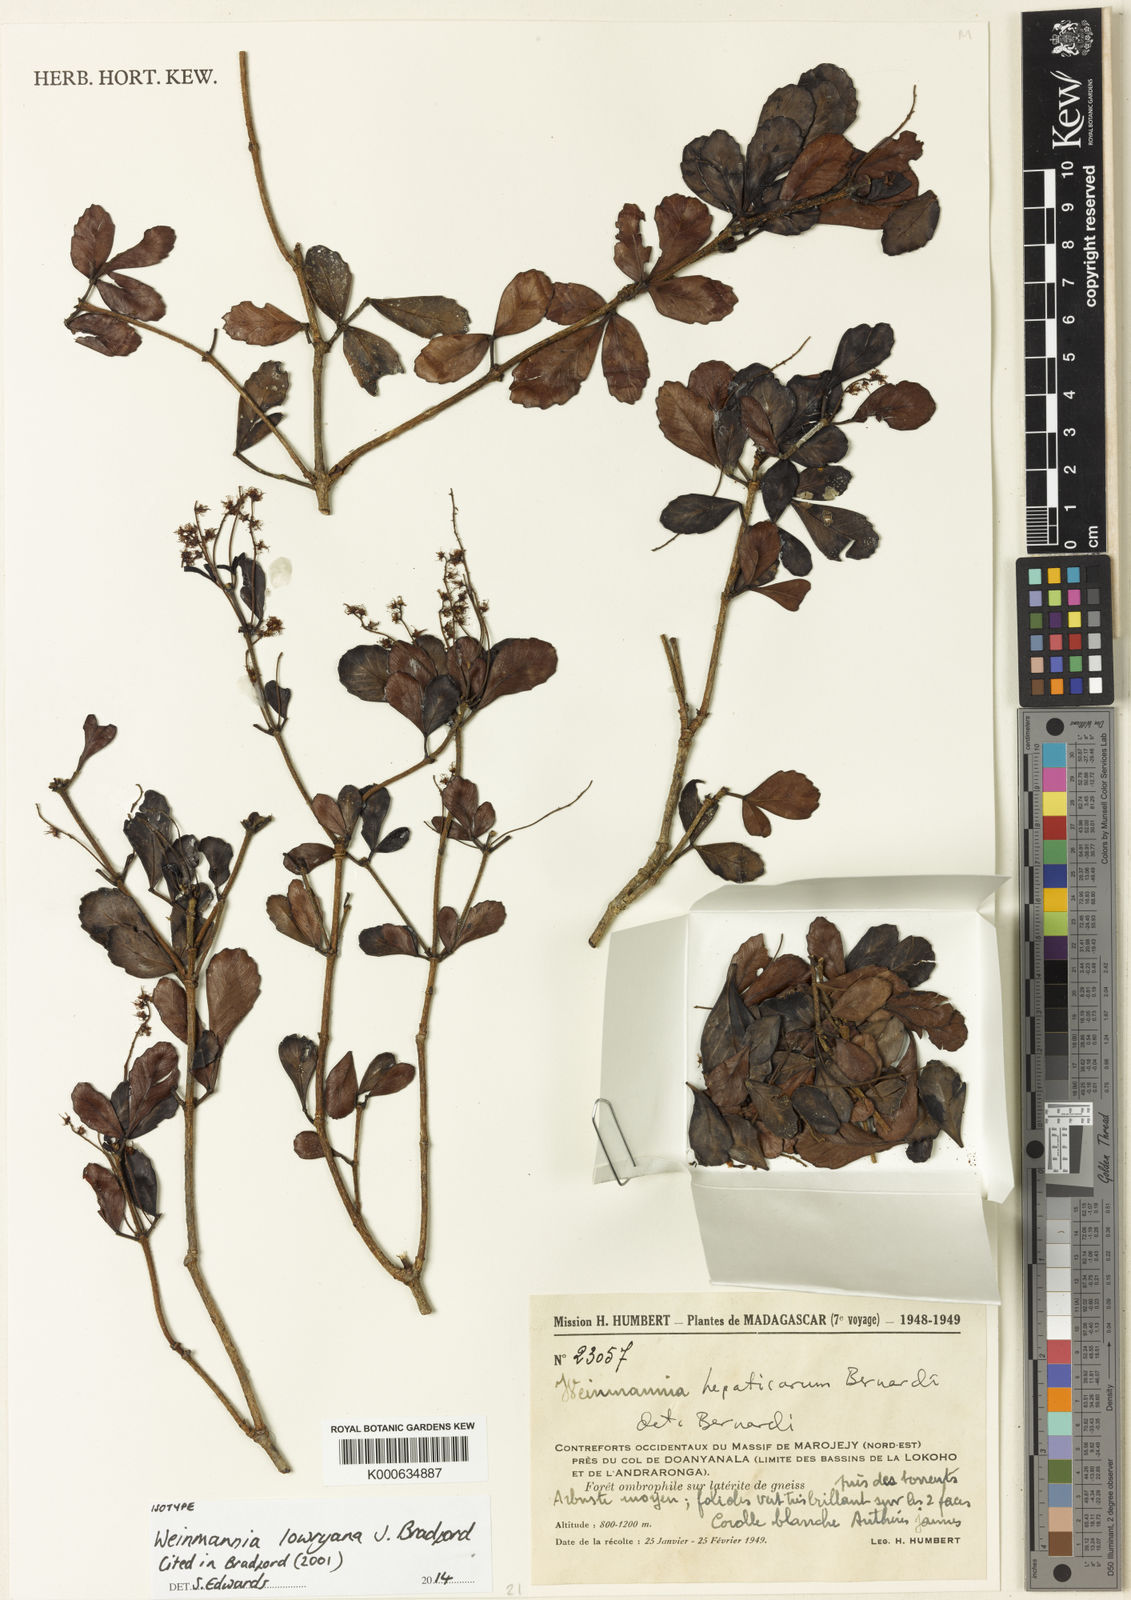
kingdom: Plantae
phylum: Tracheophyta
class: Magnoliopsida
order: Oxalidales
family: Cunoniaceae
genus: Pterophylla
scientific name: Pterophylla lowryana
